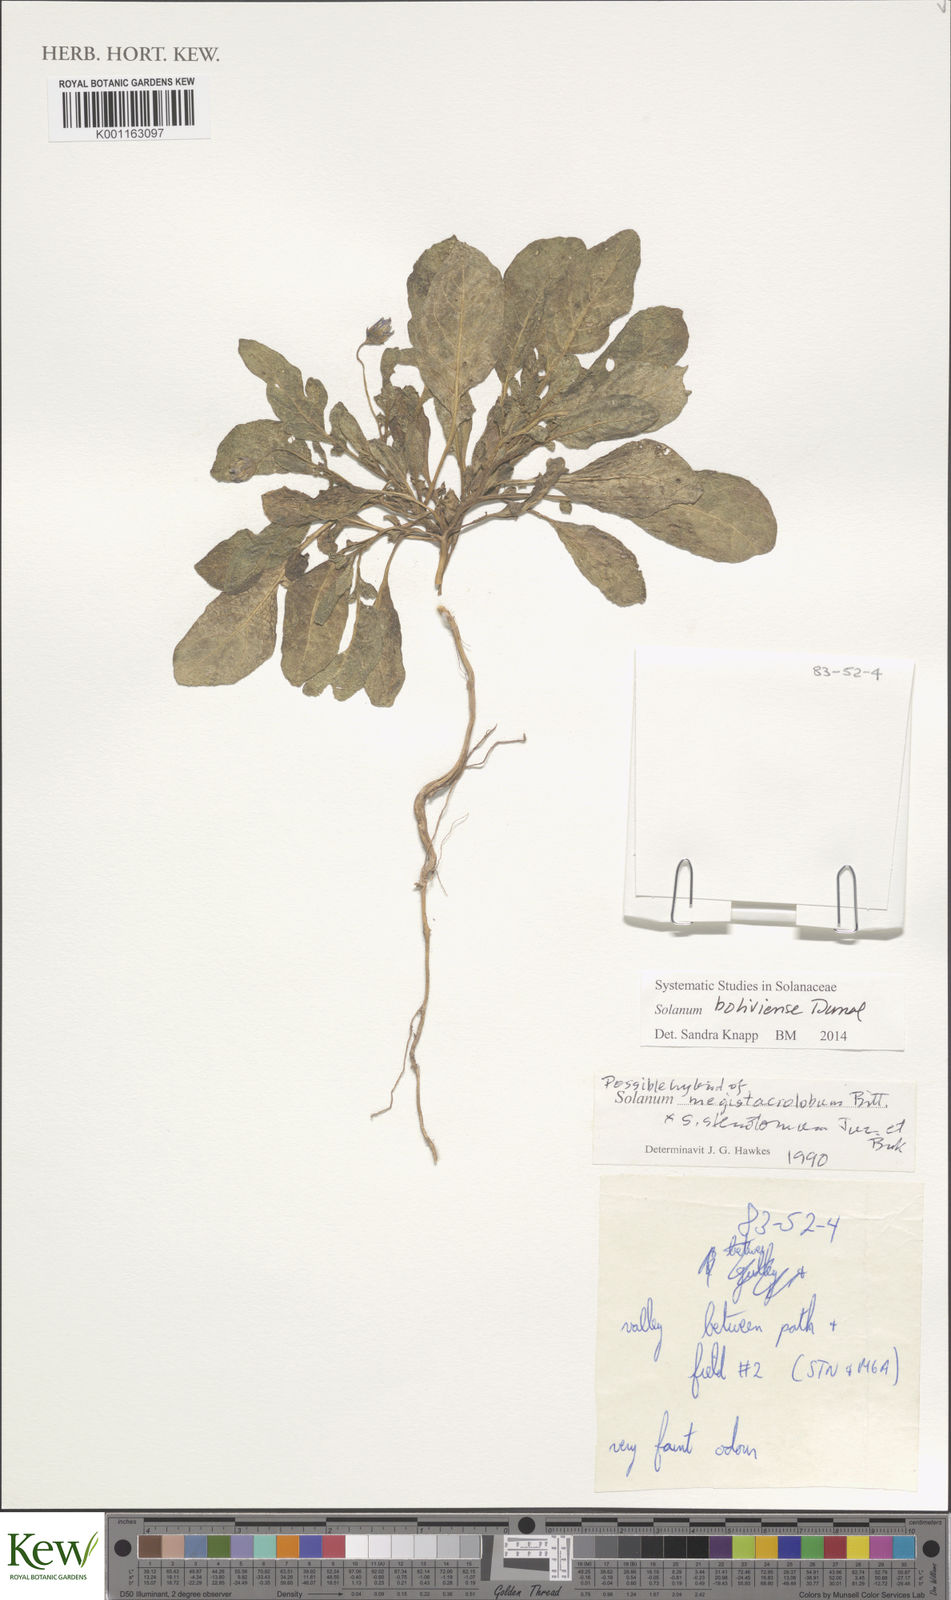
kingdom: Plantae
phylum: Tracheophyta
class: Magnoliopsida
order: Solanales
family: Solanaceae
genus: Solanum
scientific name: Solanum boliviense
